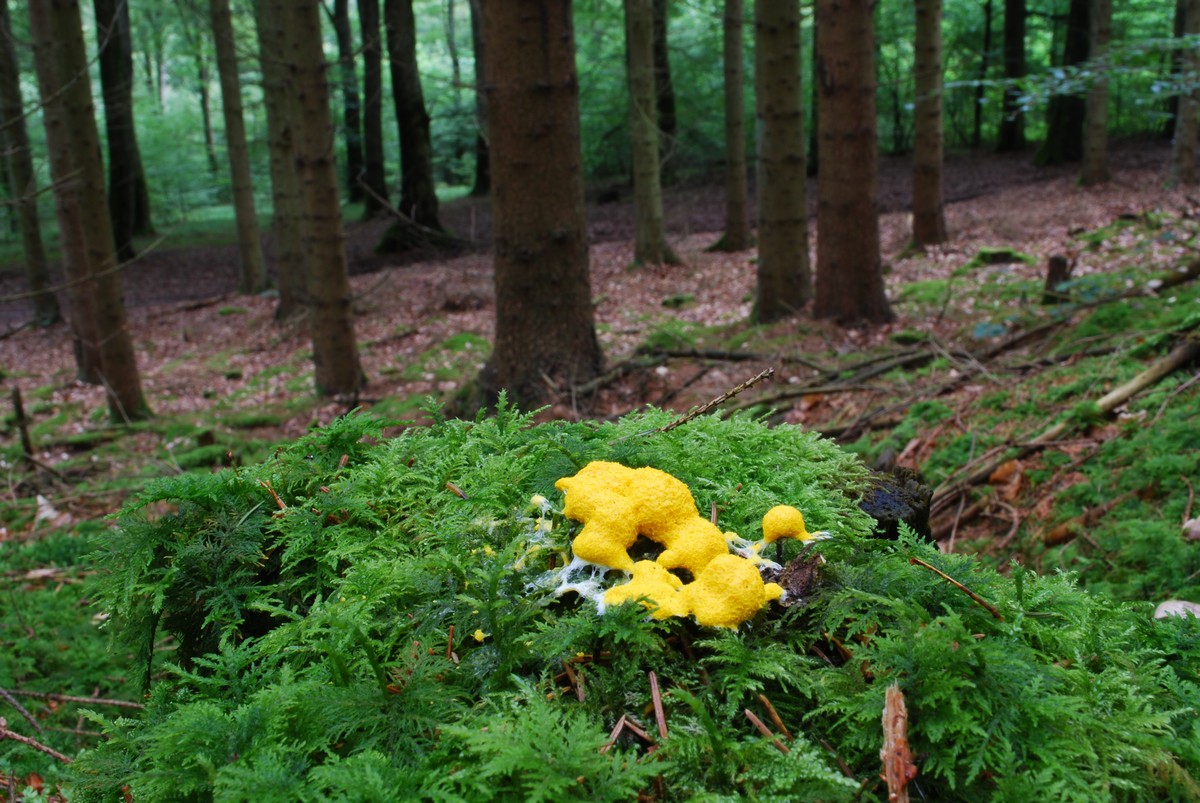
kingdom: Protozoa
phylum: Mycetozoa
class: Myxomycetes
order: Physarales
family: Physaraceae
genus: Fuligo
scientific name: Fuligo septica
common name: gul troldsmør
